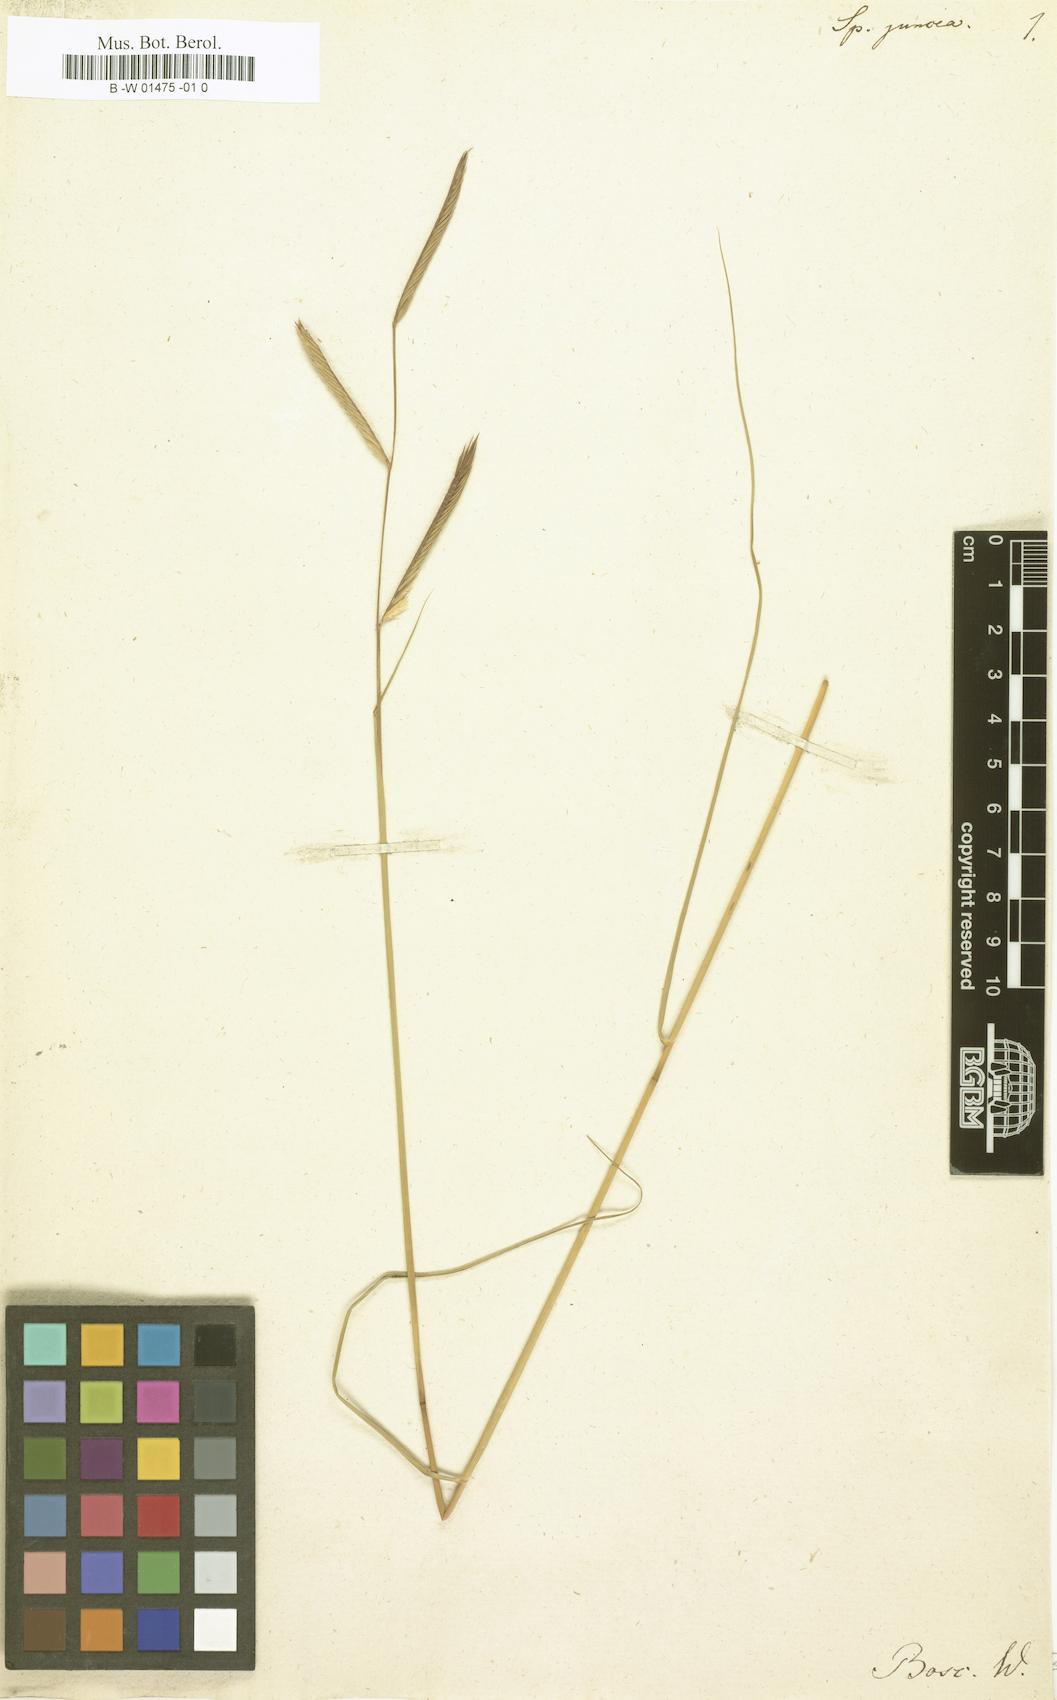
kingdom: Plantae
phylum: Tracheophyta
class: Liliopsida
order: Poales
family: Poaceae
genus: Sporobolus
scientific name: Sporobolus pumilus
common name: Highwater grass
